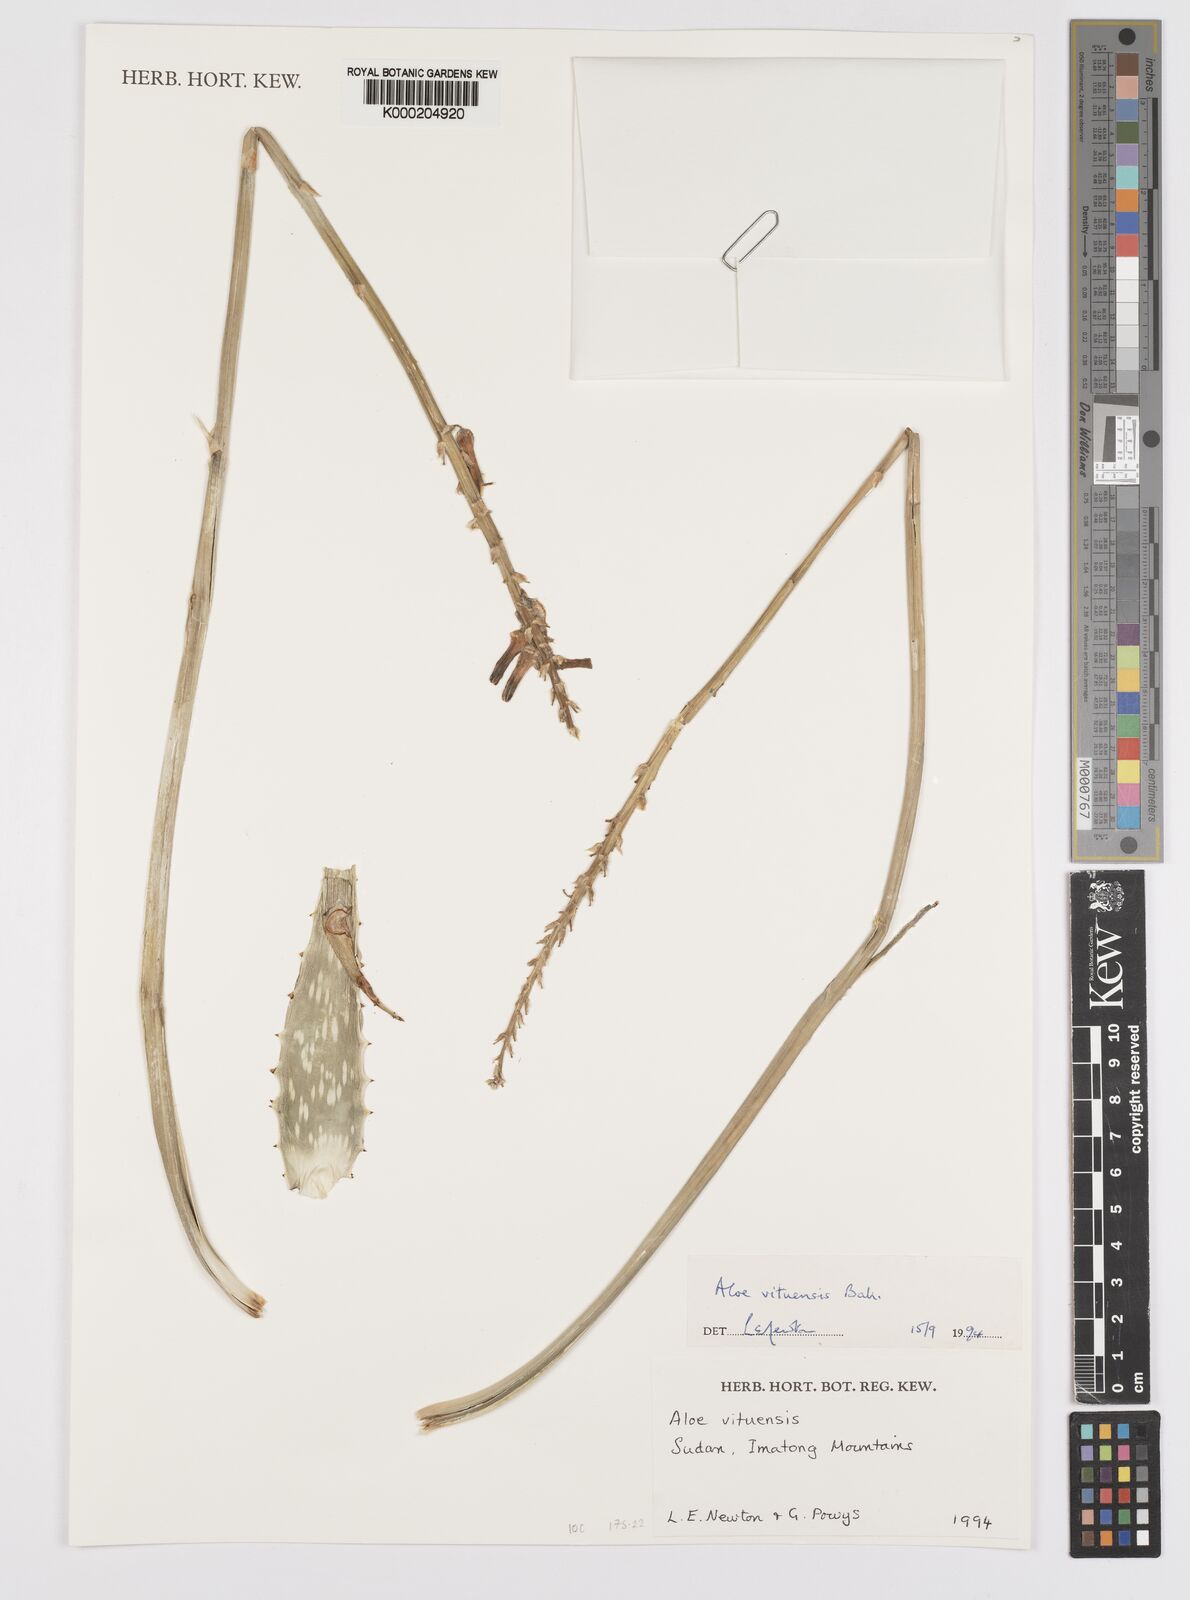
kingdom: Plantae
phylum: Tracheophyta
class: Liliopsida
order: Asparagales
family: Asphodelaceae
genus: Aloe
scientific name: Aloe vituensis
